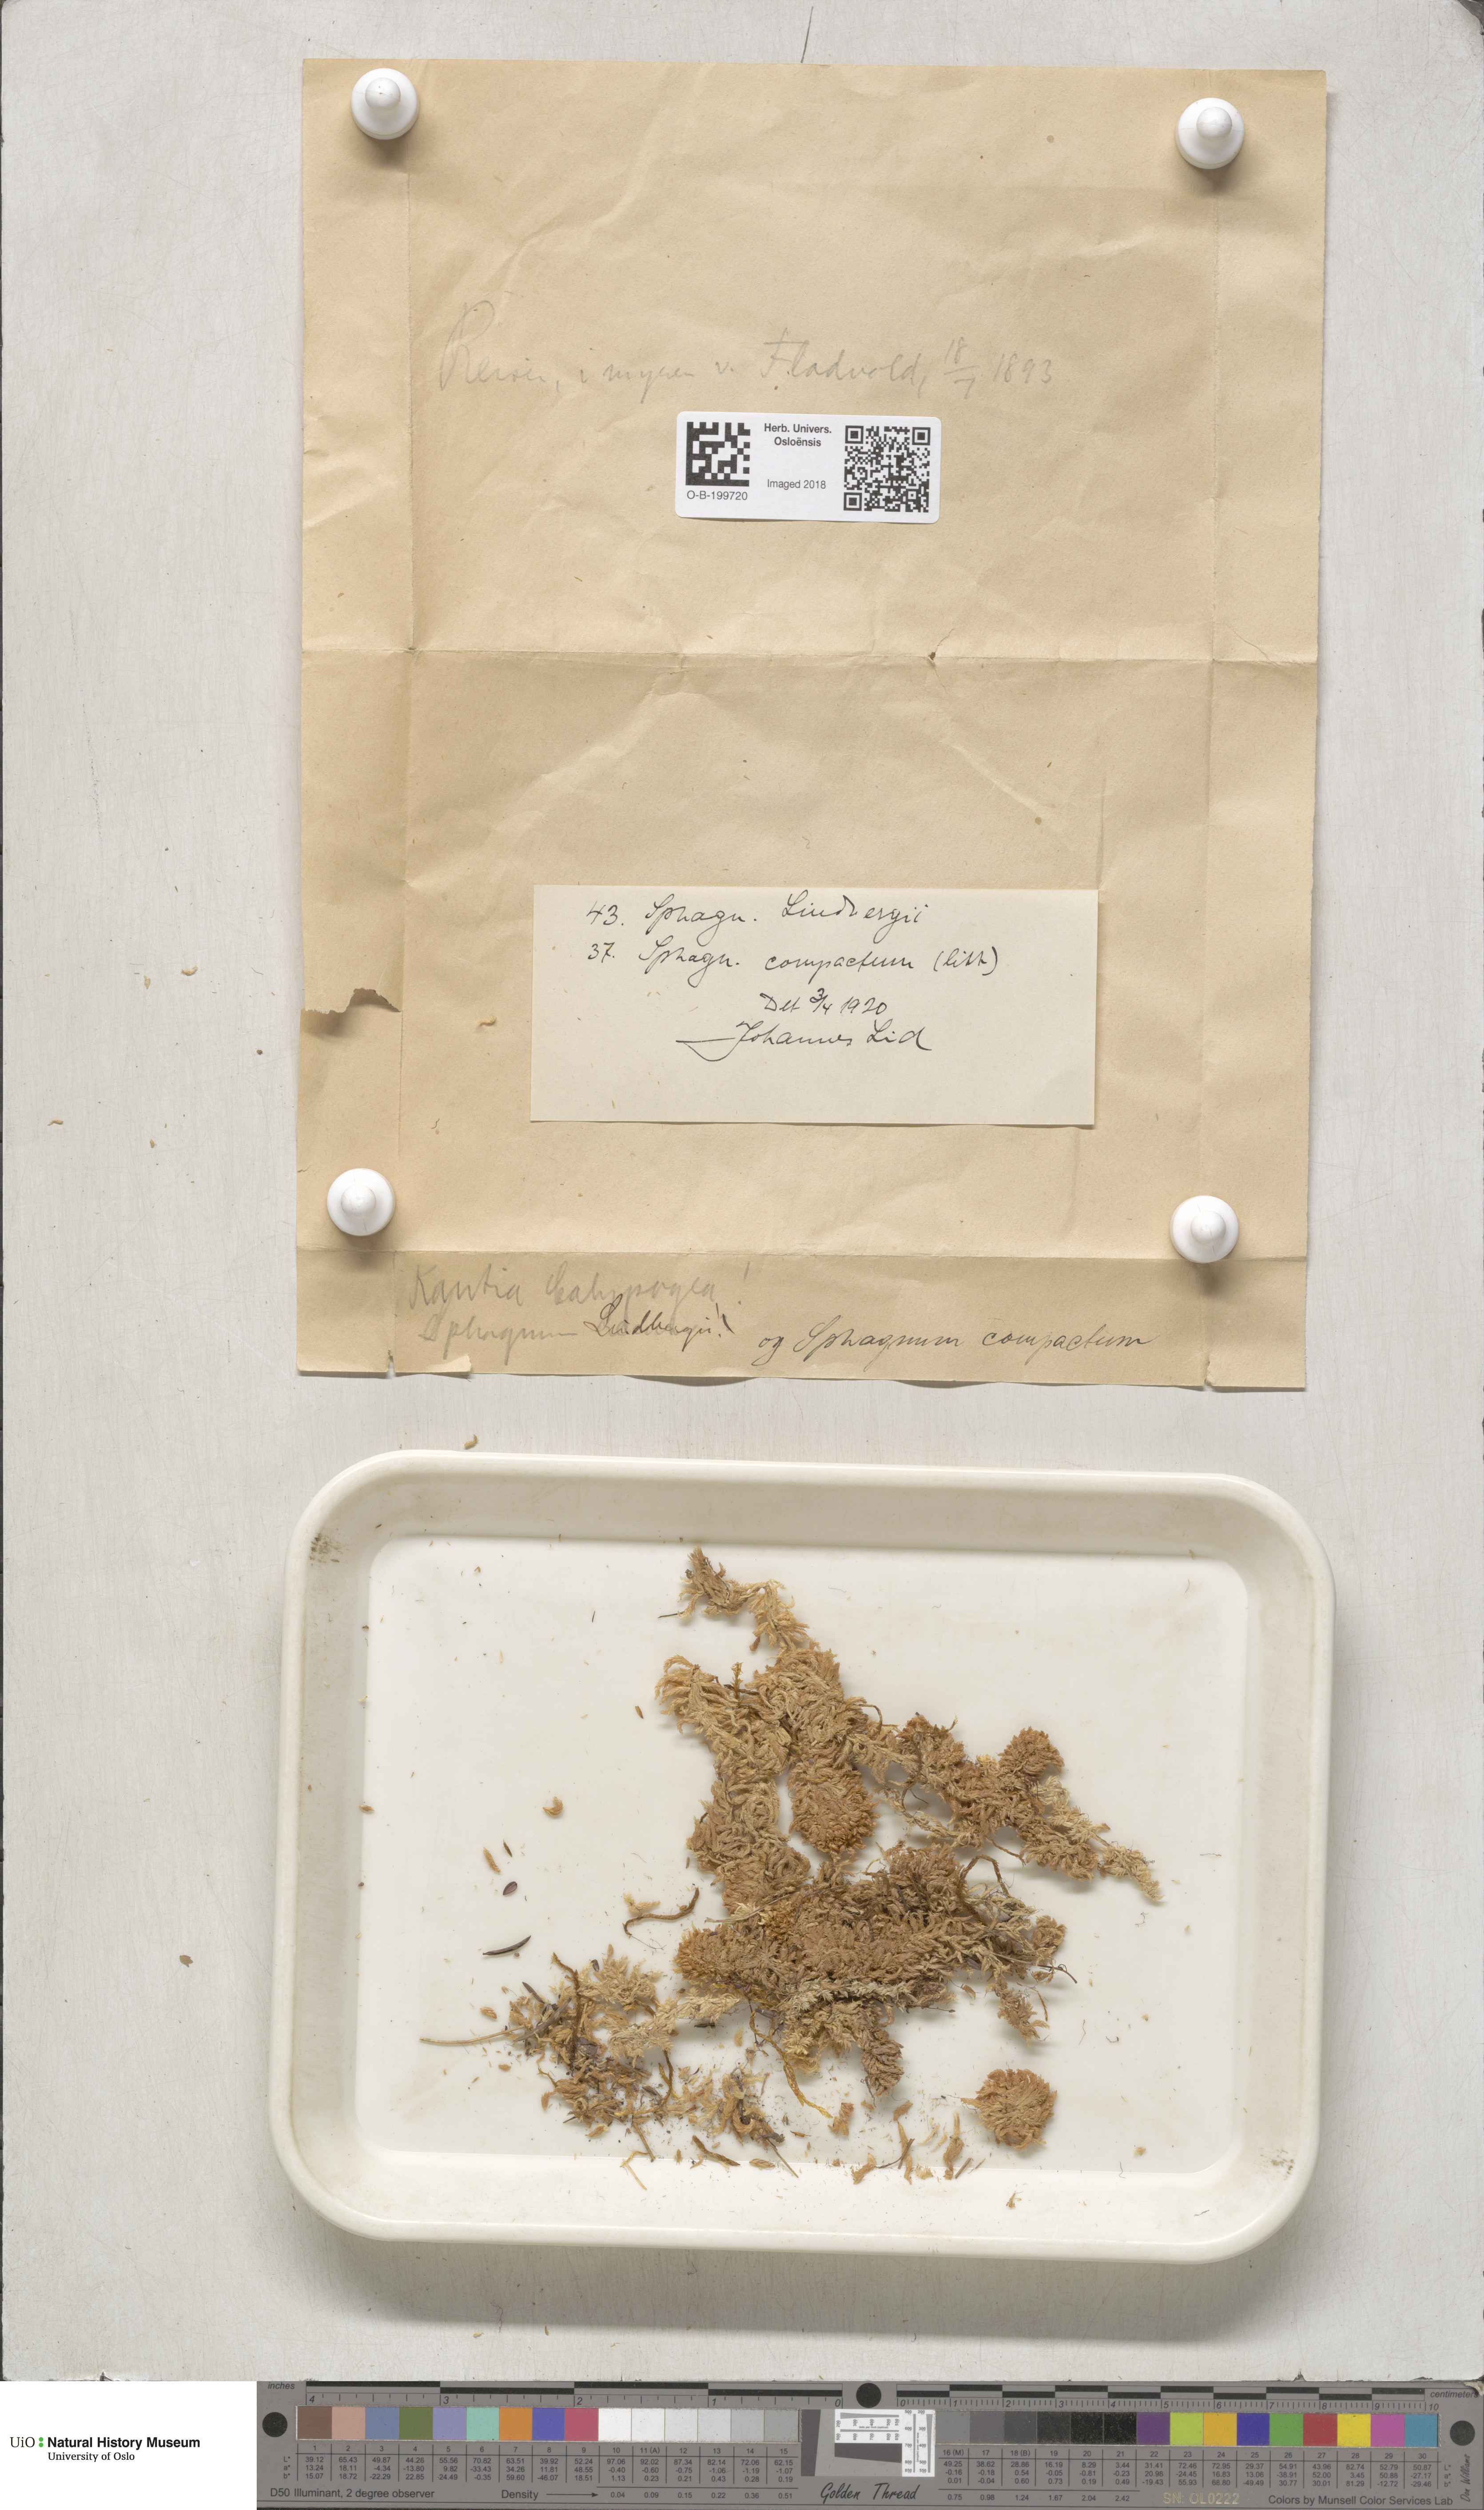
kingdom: Plantae
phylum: Bryophyta
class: Sphagnopsida
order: Sphagnales
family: Sphagnaceae
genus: Sphagnum
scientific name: Sphagnum compactum
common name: Compact peat moss
